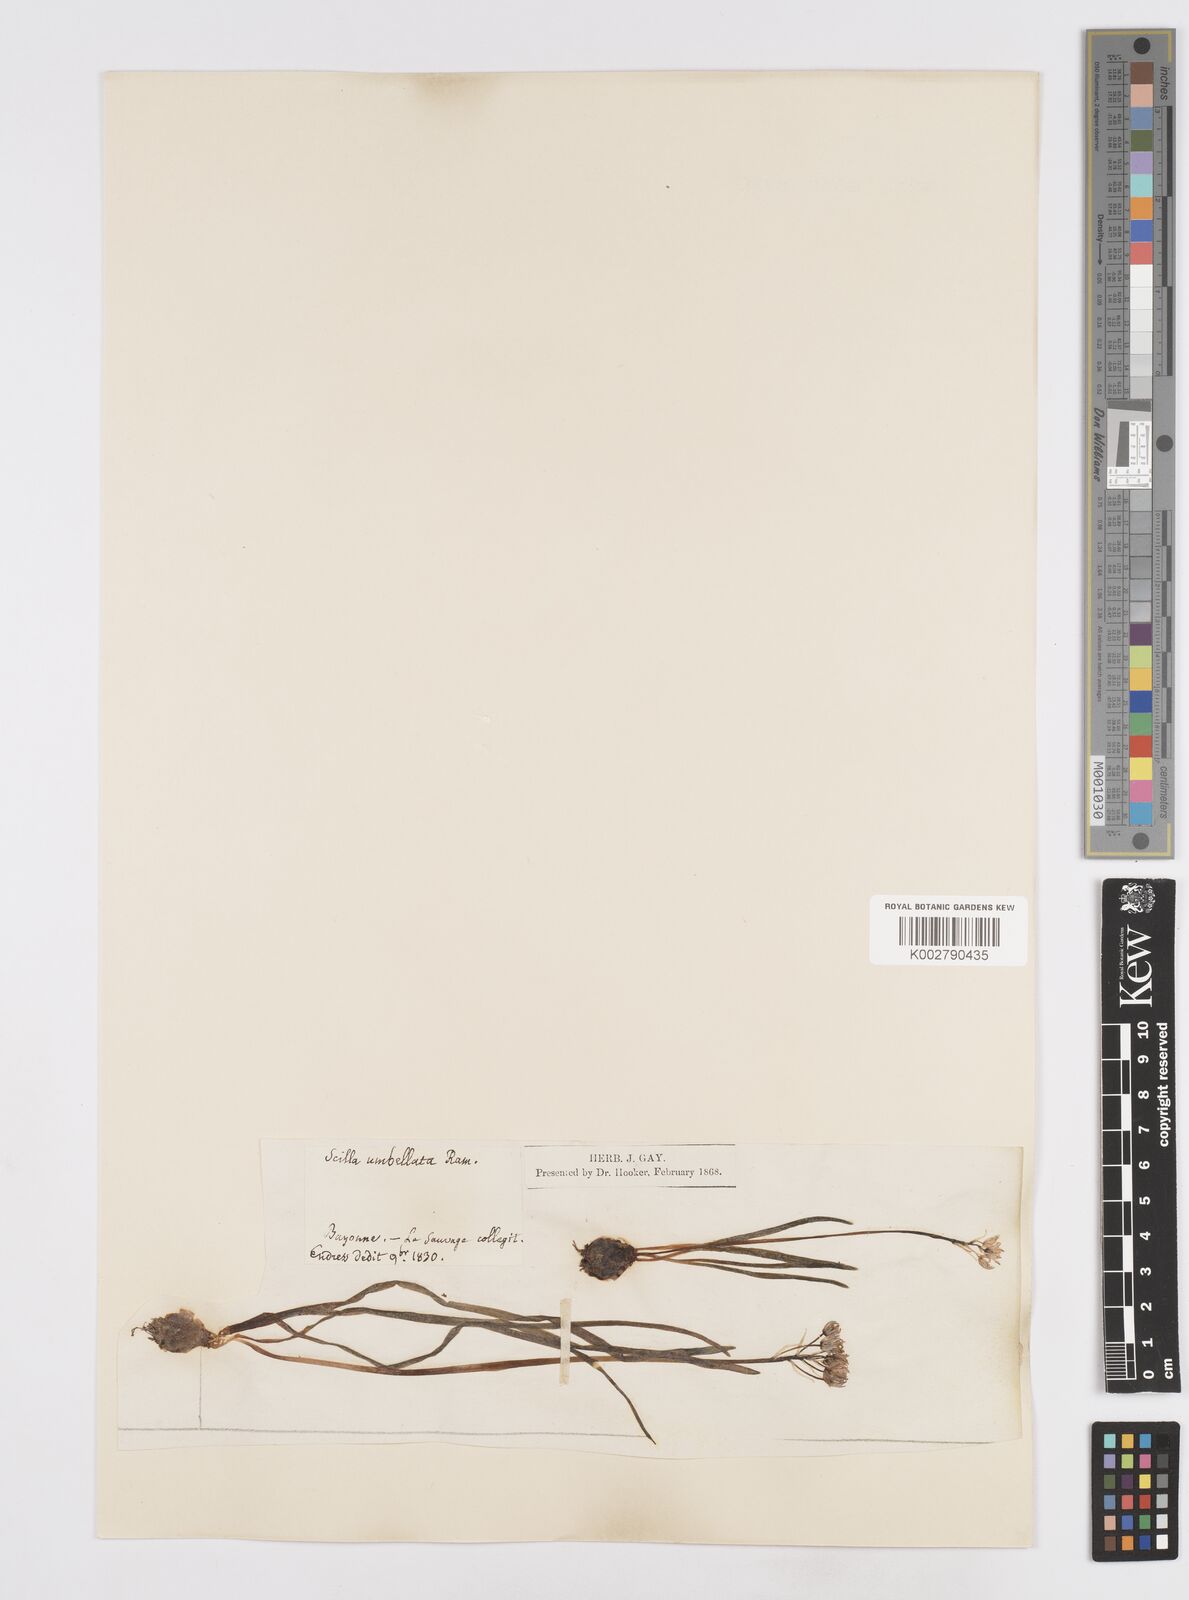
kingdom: Plantae
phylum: Tracheophyta
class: Liliopsida
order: Asparagales
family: Asparagaceae
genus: Scilla
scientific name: Scilla verna
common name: Spring squill
